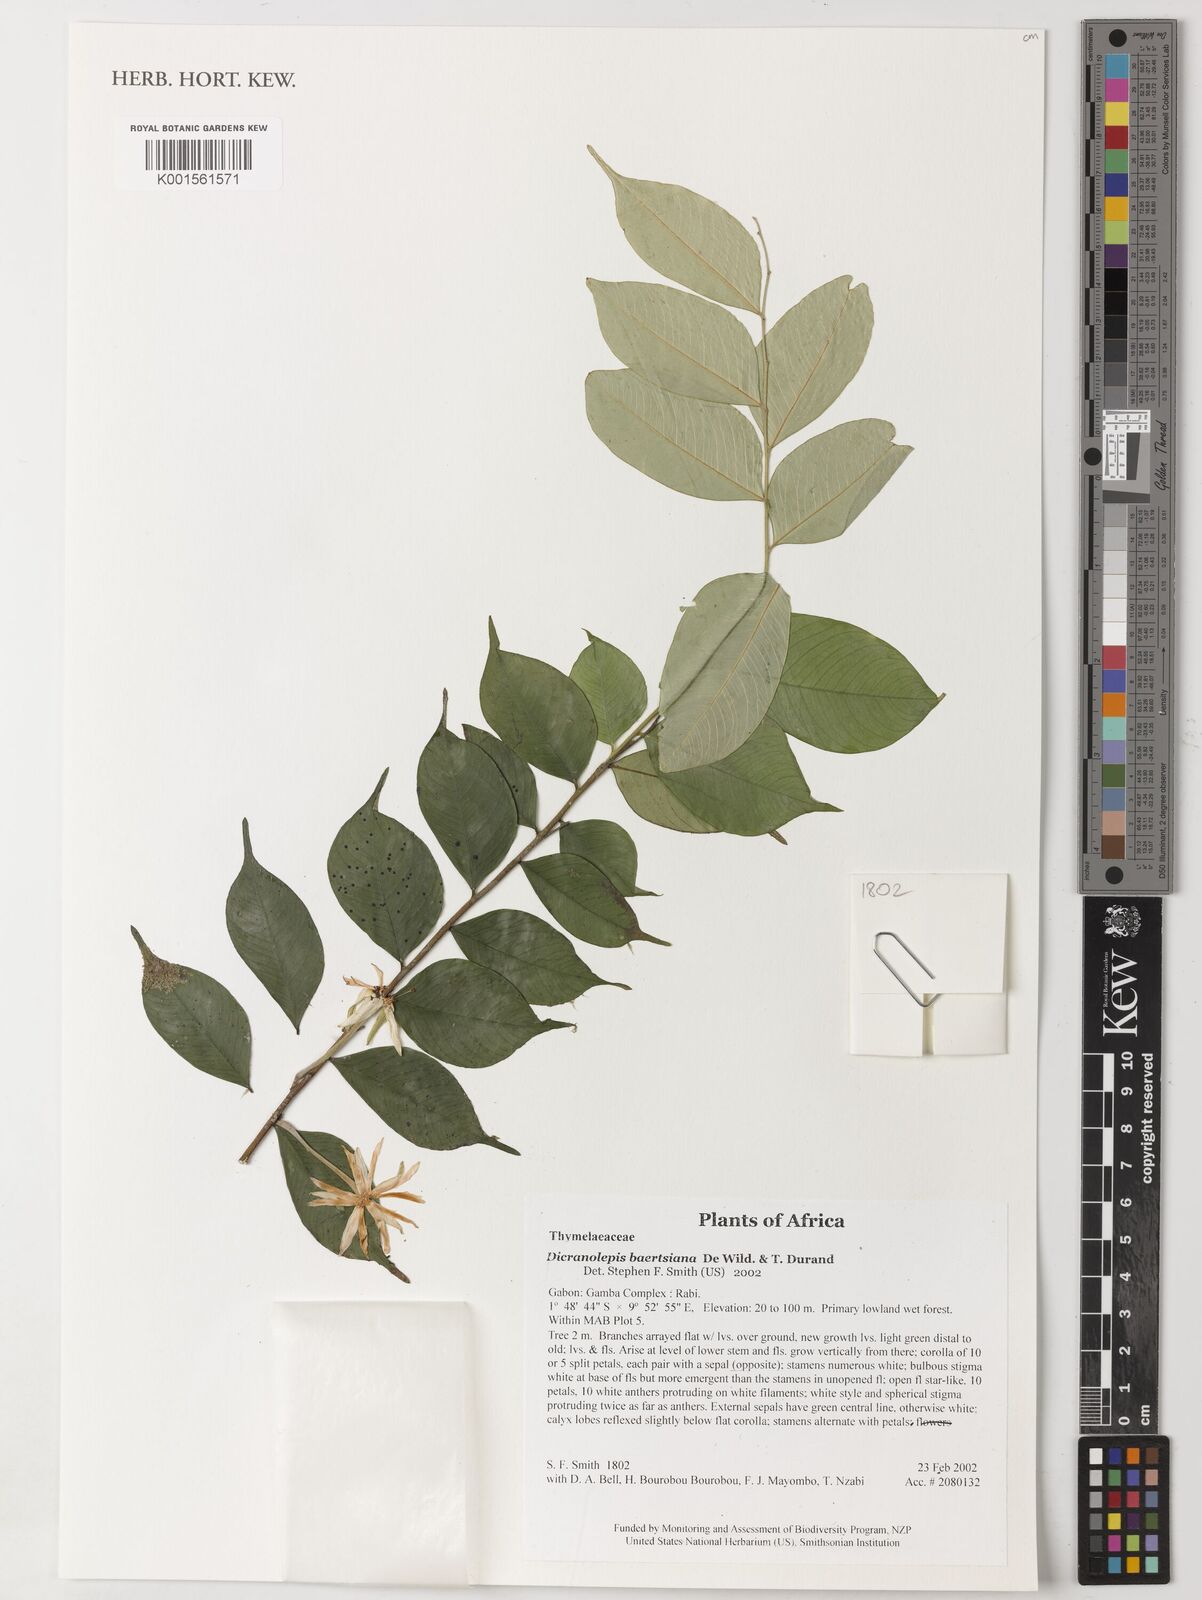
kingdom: Plantae
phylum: Tracheophyta
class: Magnoliopsida
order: Malvales
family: Thymelaeaceae
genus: Dicranolepis
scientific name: Dicranolepis baertsiana
